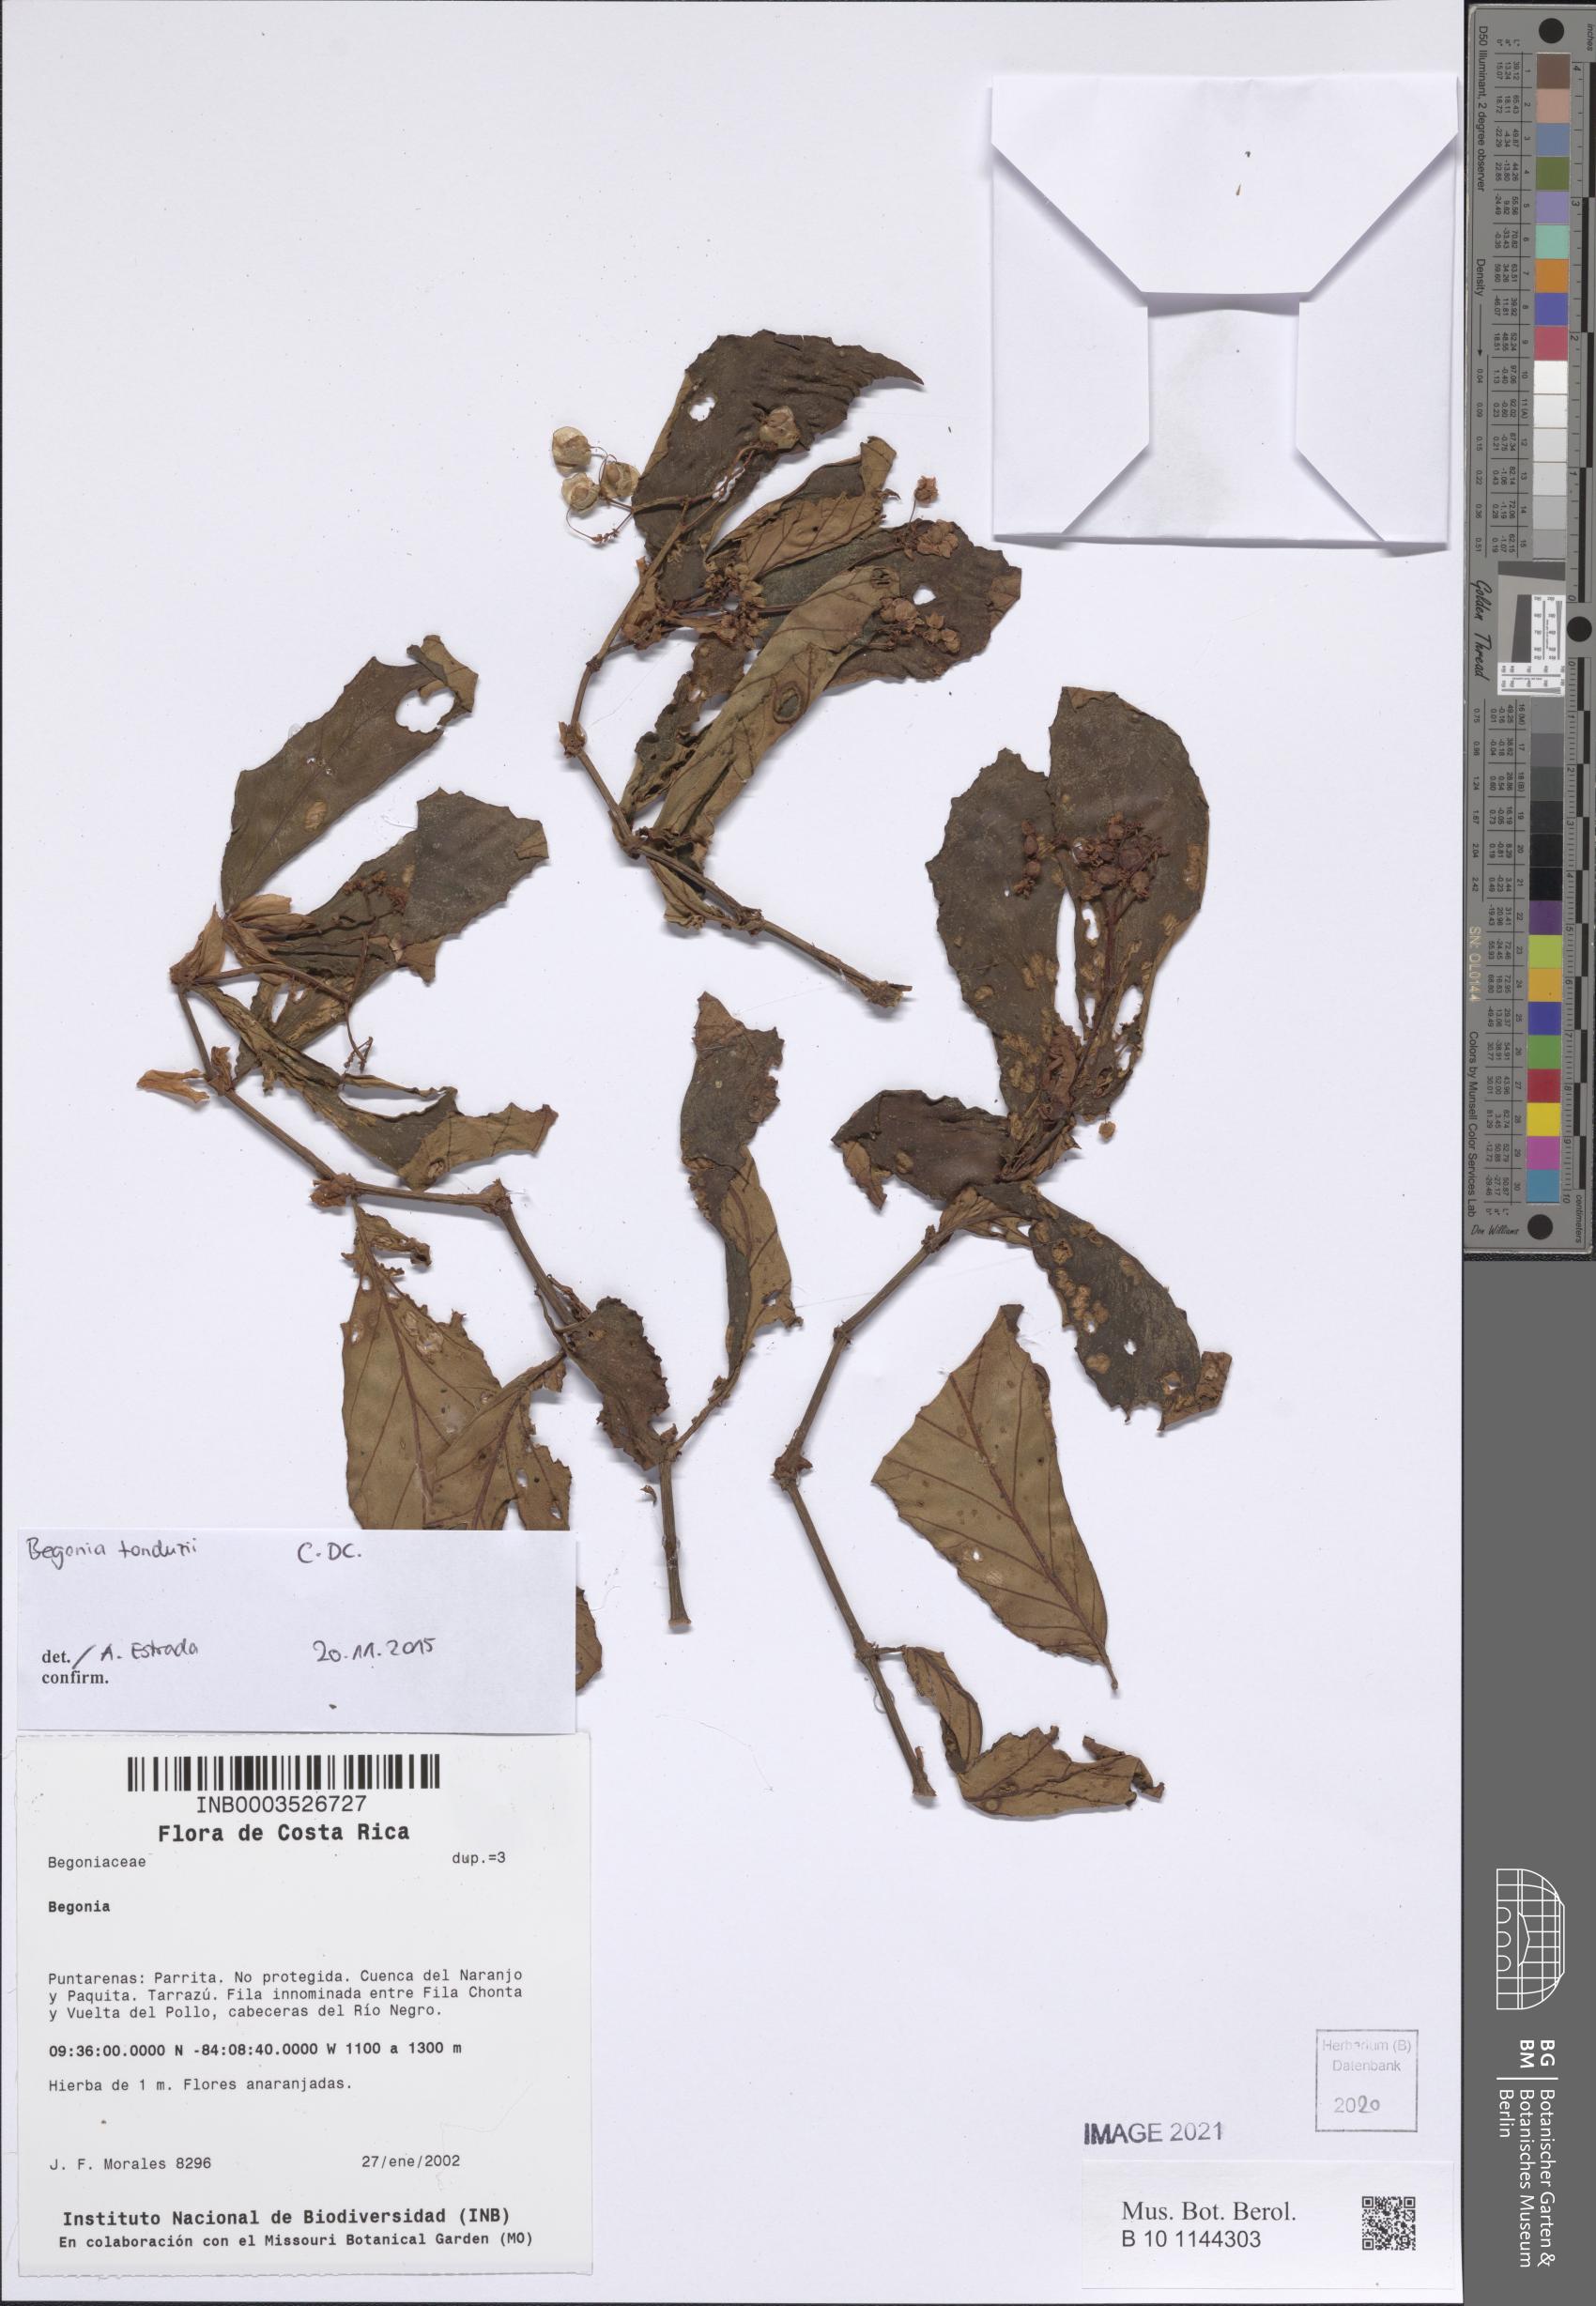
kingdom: Plantae
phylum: Tracheophyta
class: Magnoliopsida
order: Cucurbitales
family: Begoniaceae
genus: Begonia
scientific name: Begonia
